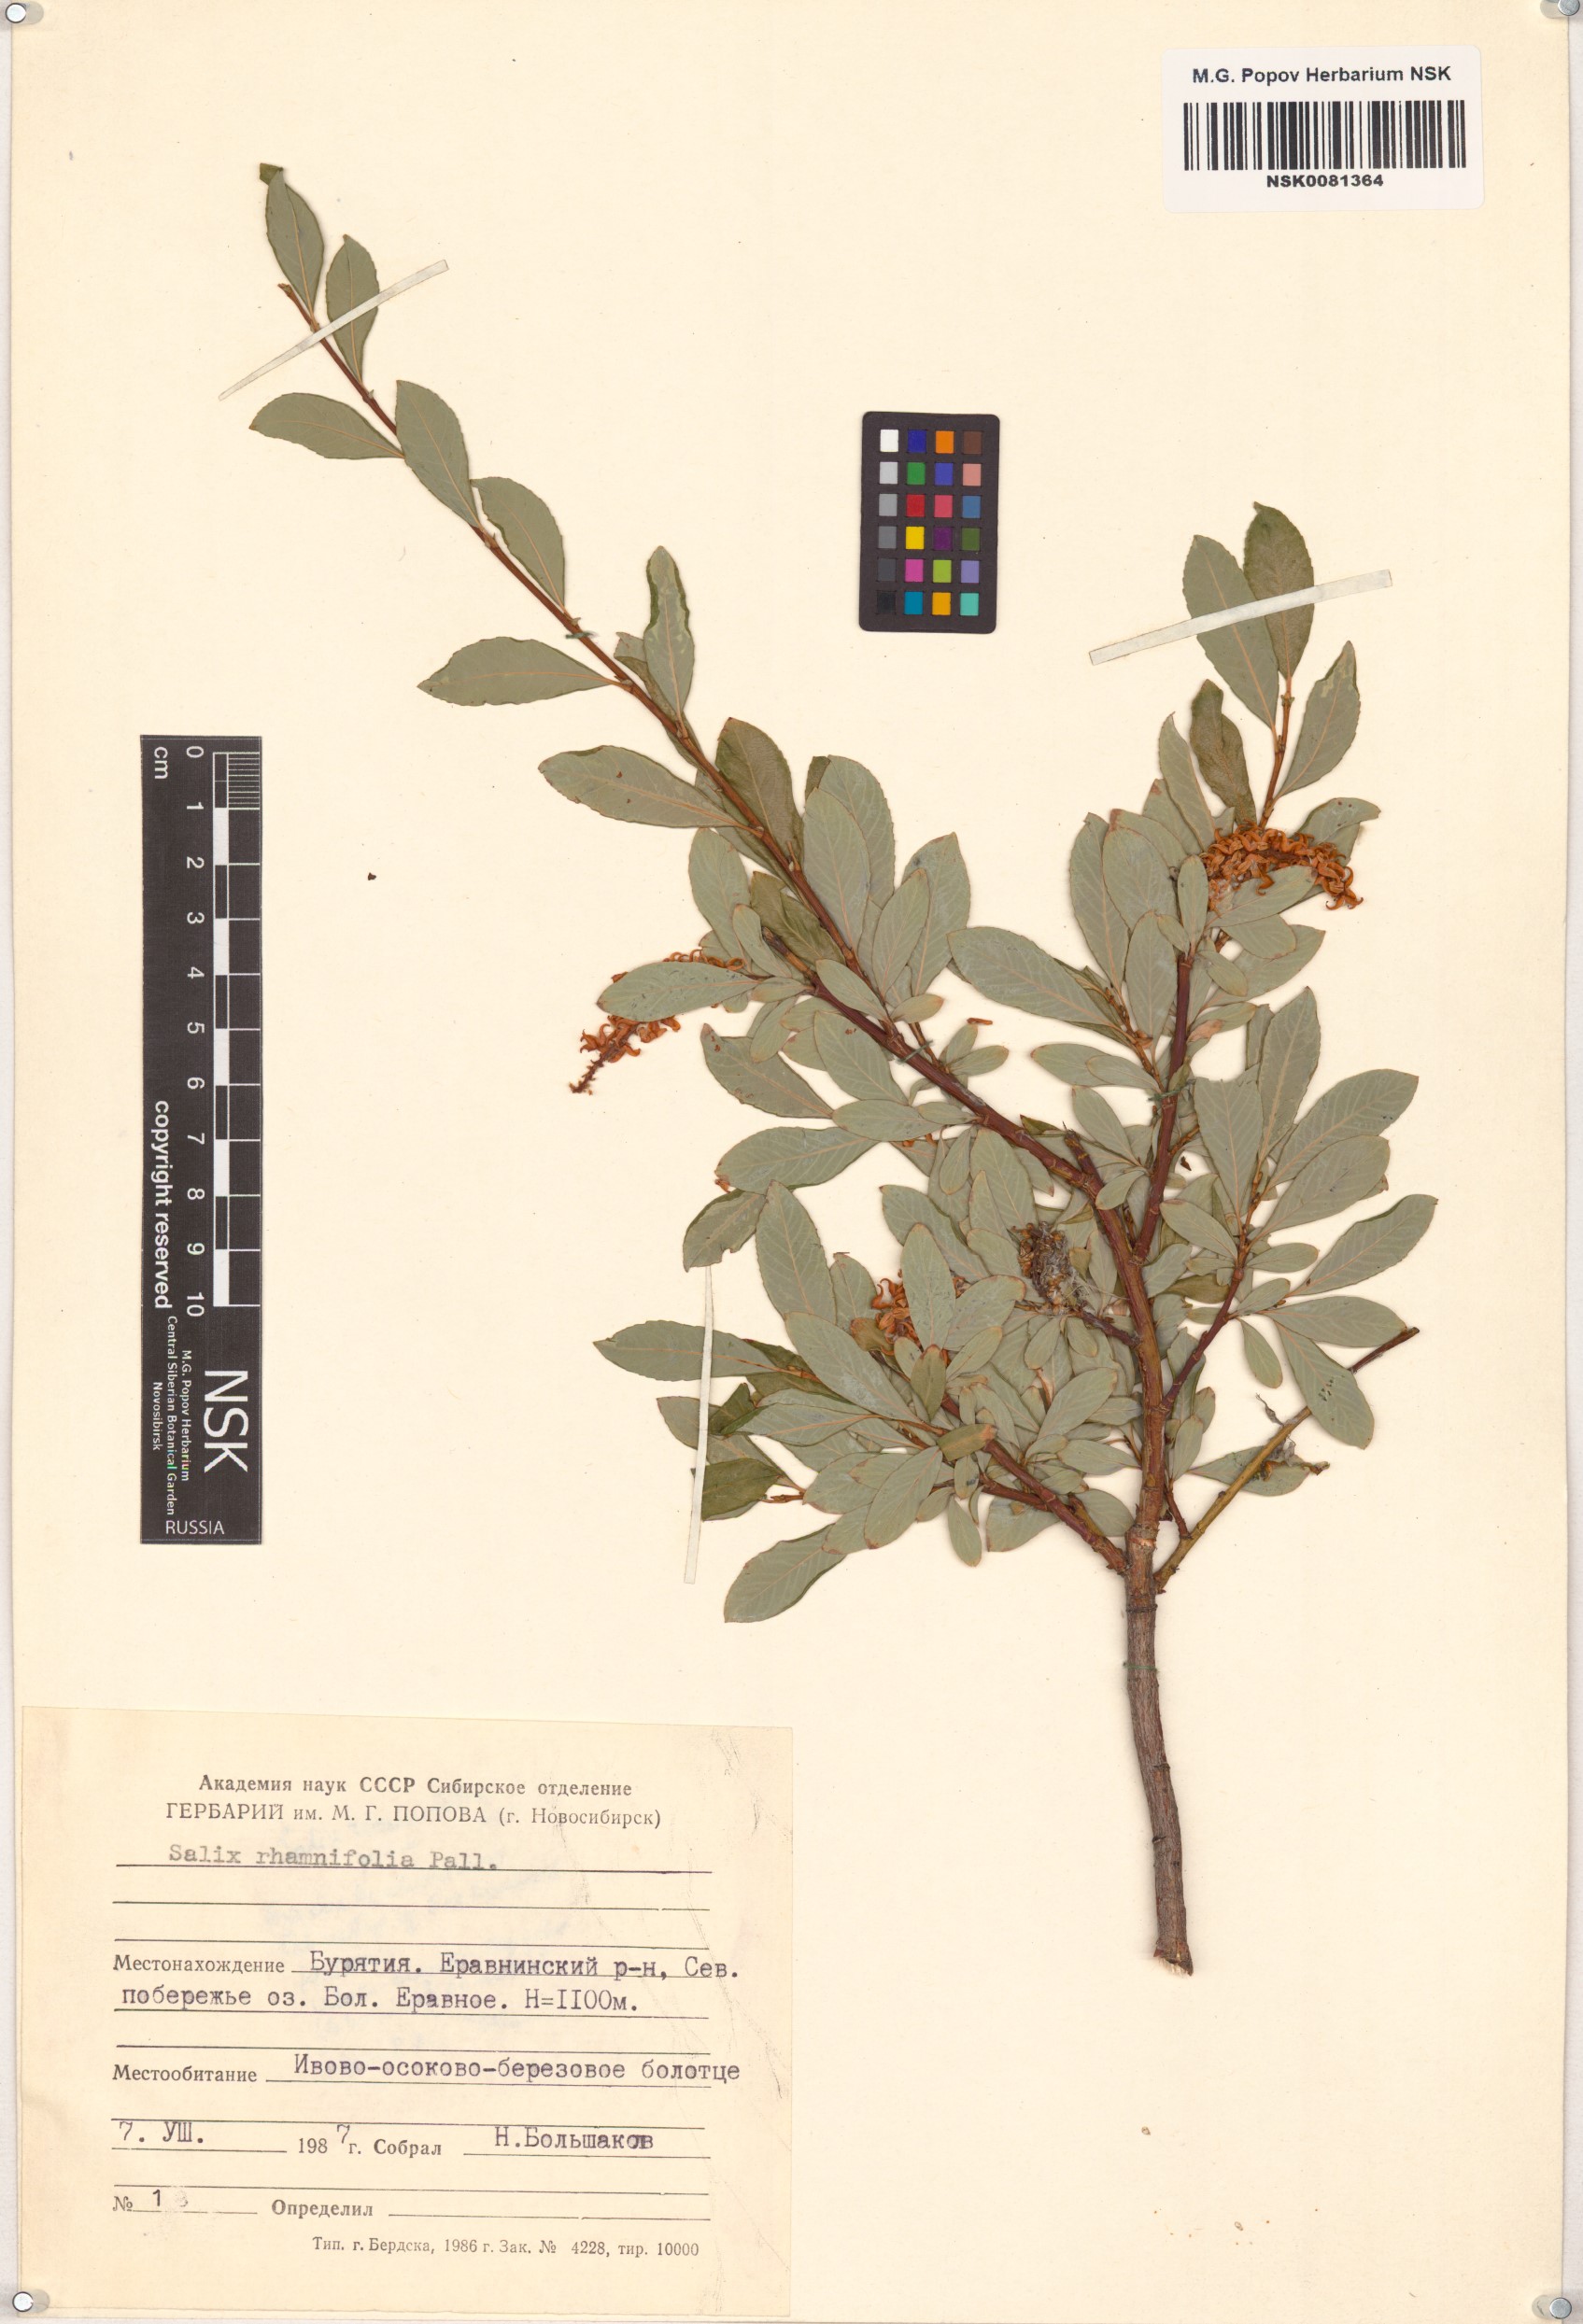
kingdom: Plantae
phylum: Tracheophyta
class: Magnoliopsida
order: Malpighiales
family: Salicaceae
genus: Salix
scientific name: Salix rhamnifolia
